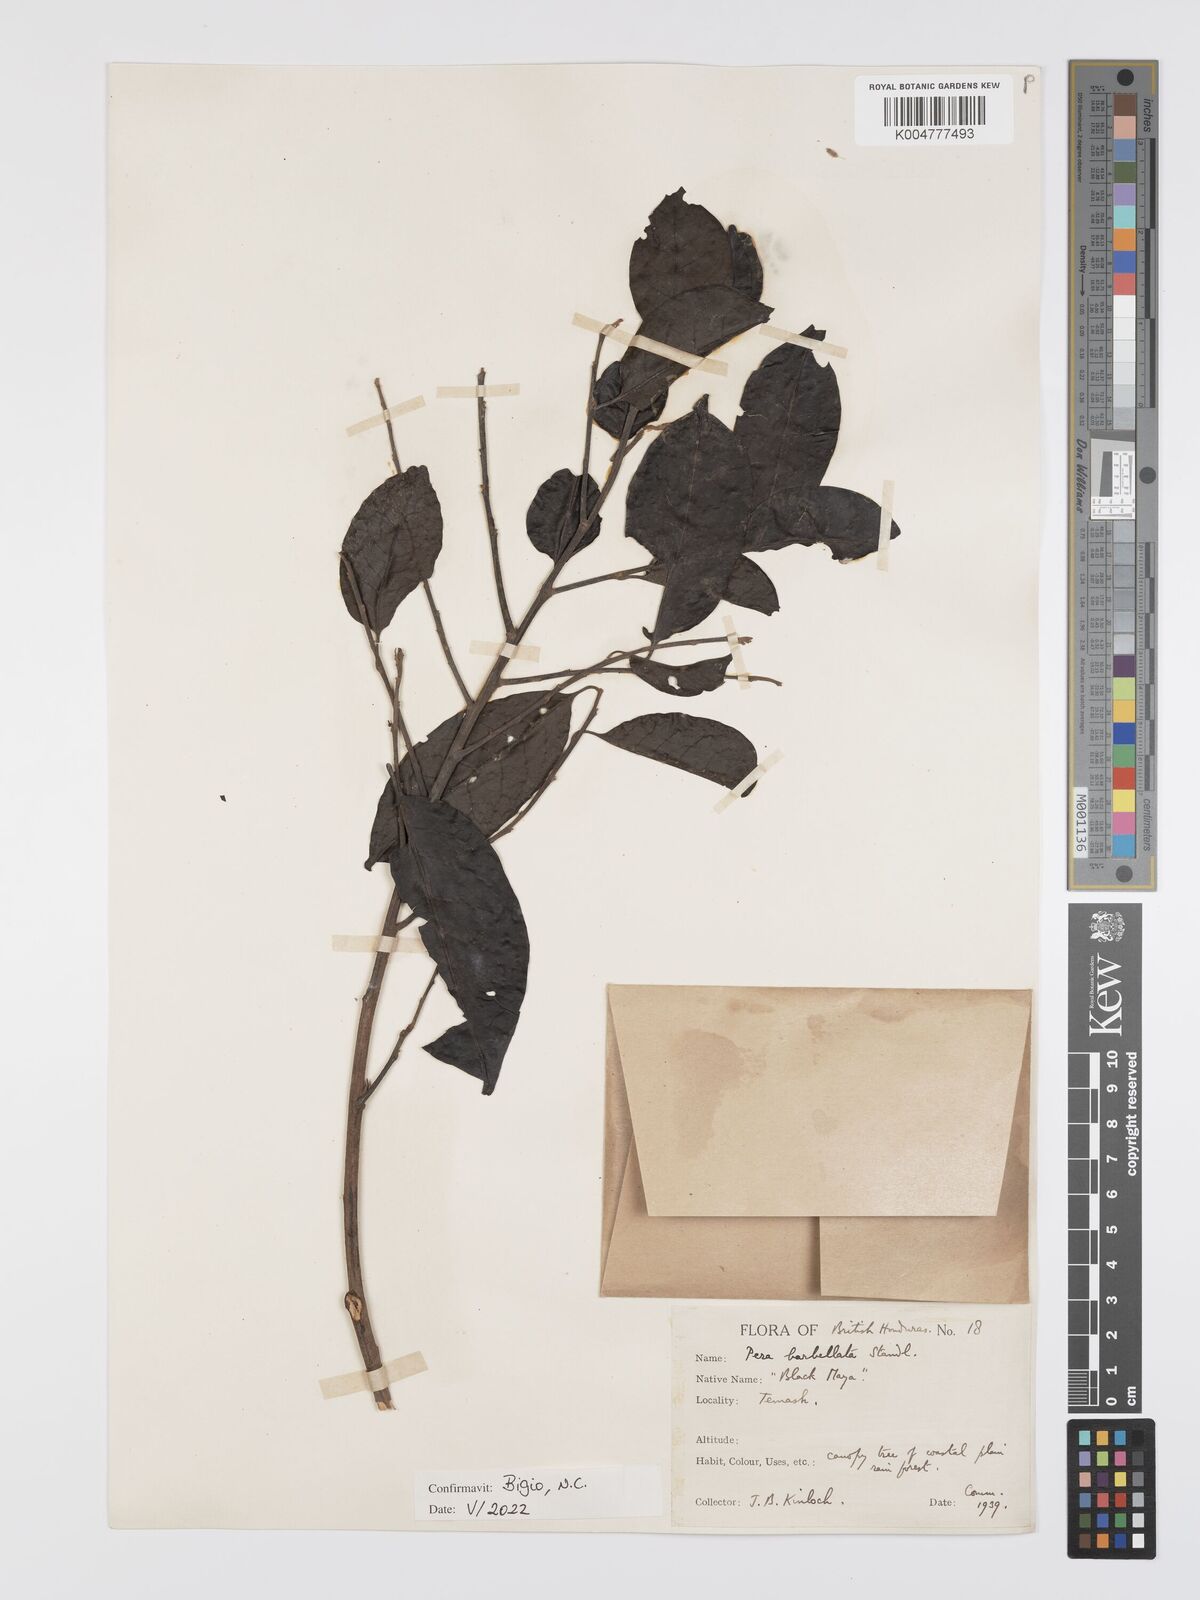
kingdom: Plantae
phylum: Tracheophyta
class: Magnoliopsida
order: Malpighiales
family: Peraceae
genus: Pera
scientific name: Pera barbellata
